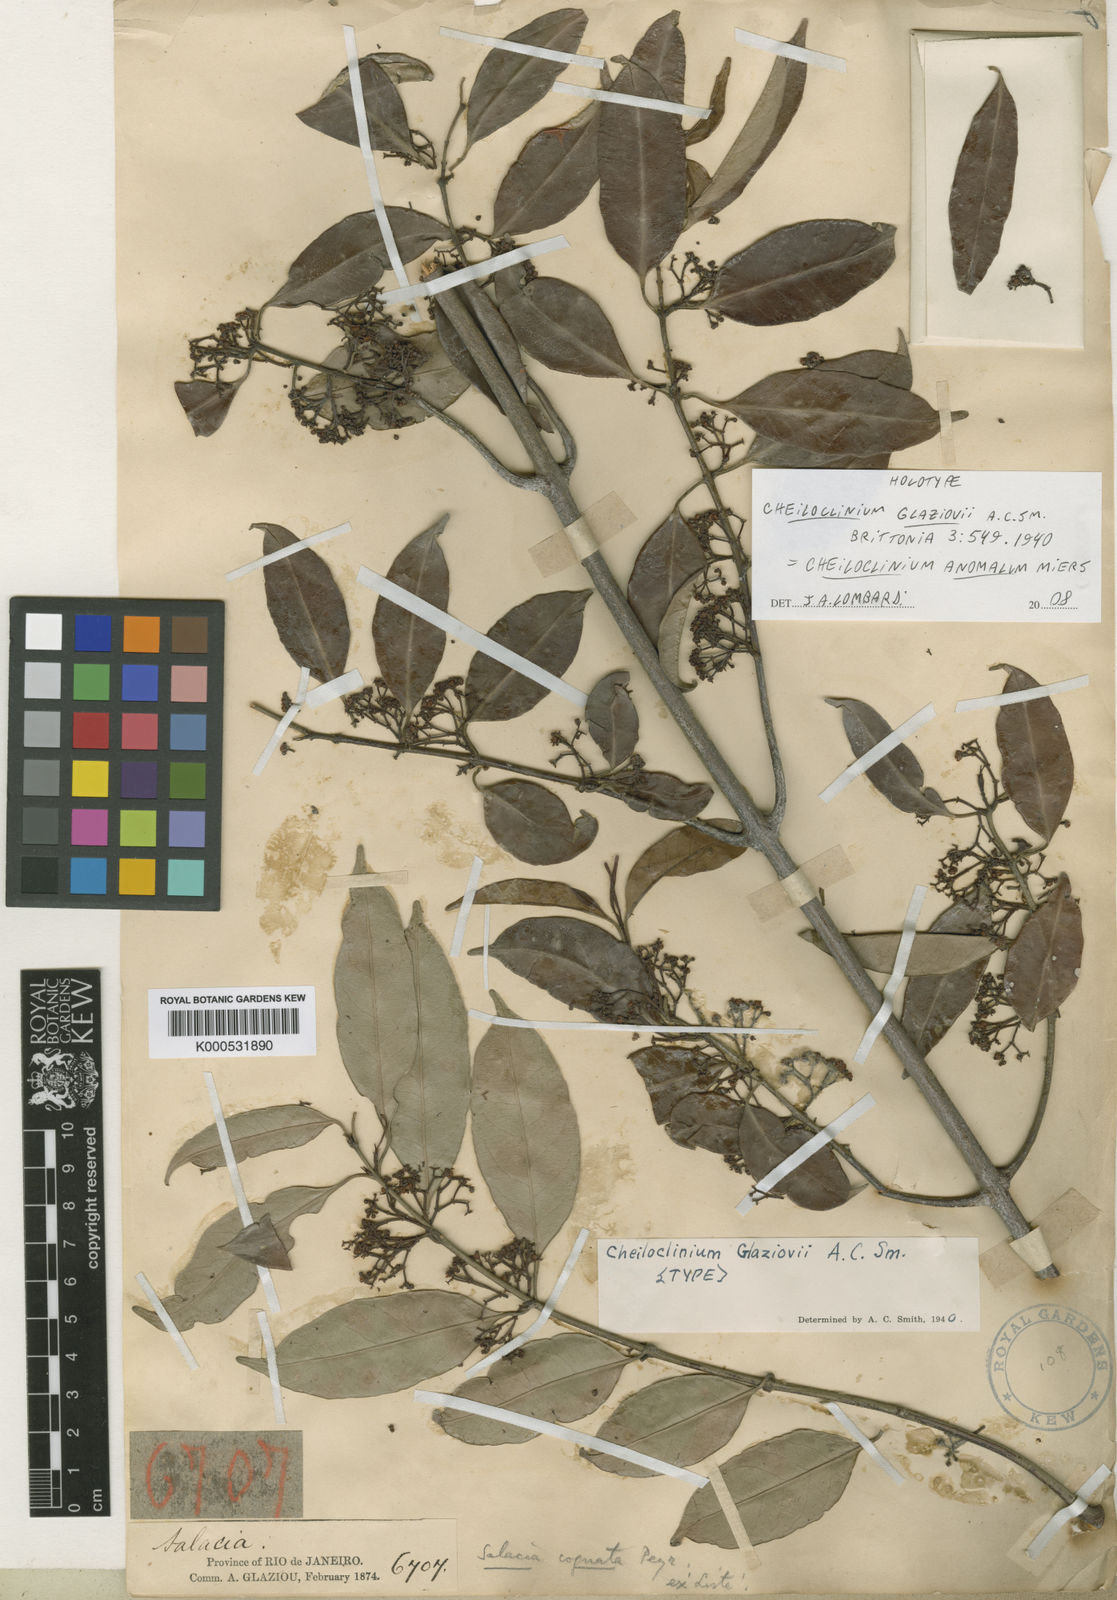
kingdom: Plantae
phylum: Tracheophyta
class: Magnoliopsida
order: Celastrales
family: Celastraceae
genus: Cheiloclinium
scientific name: Cheiloclinium anomalum
